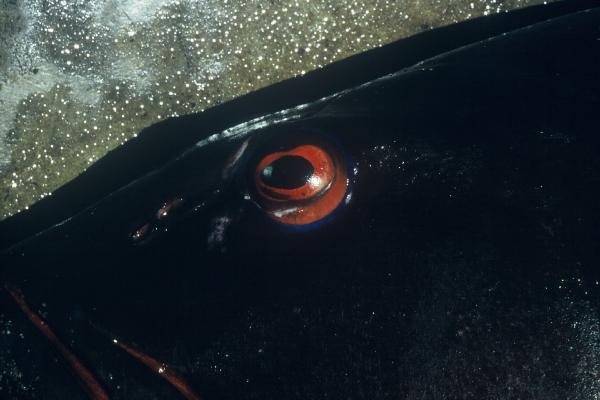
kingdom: Animalia
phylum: Chordata
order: Perciformes
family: Serranidae
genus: Plectropomus
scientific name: Plectropomus punctatus
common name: Marbled coralgrouper
